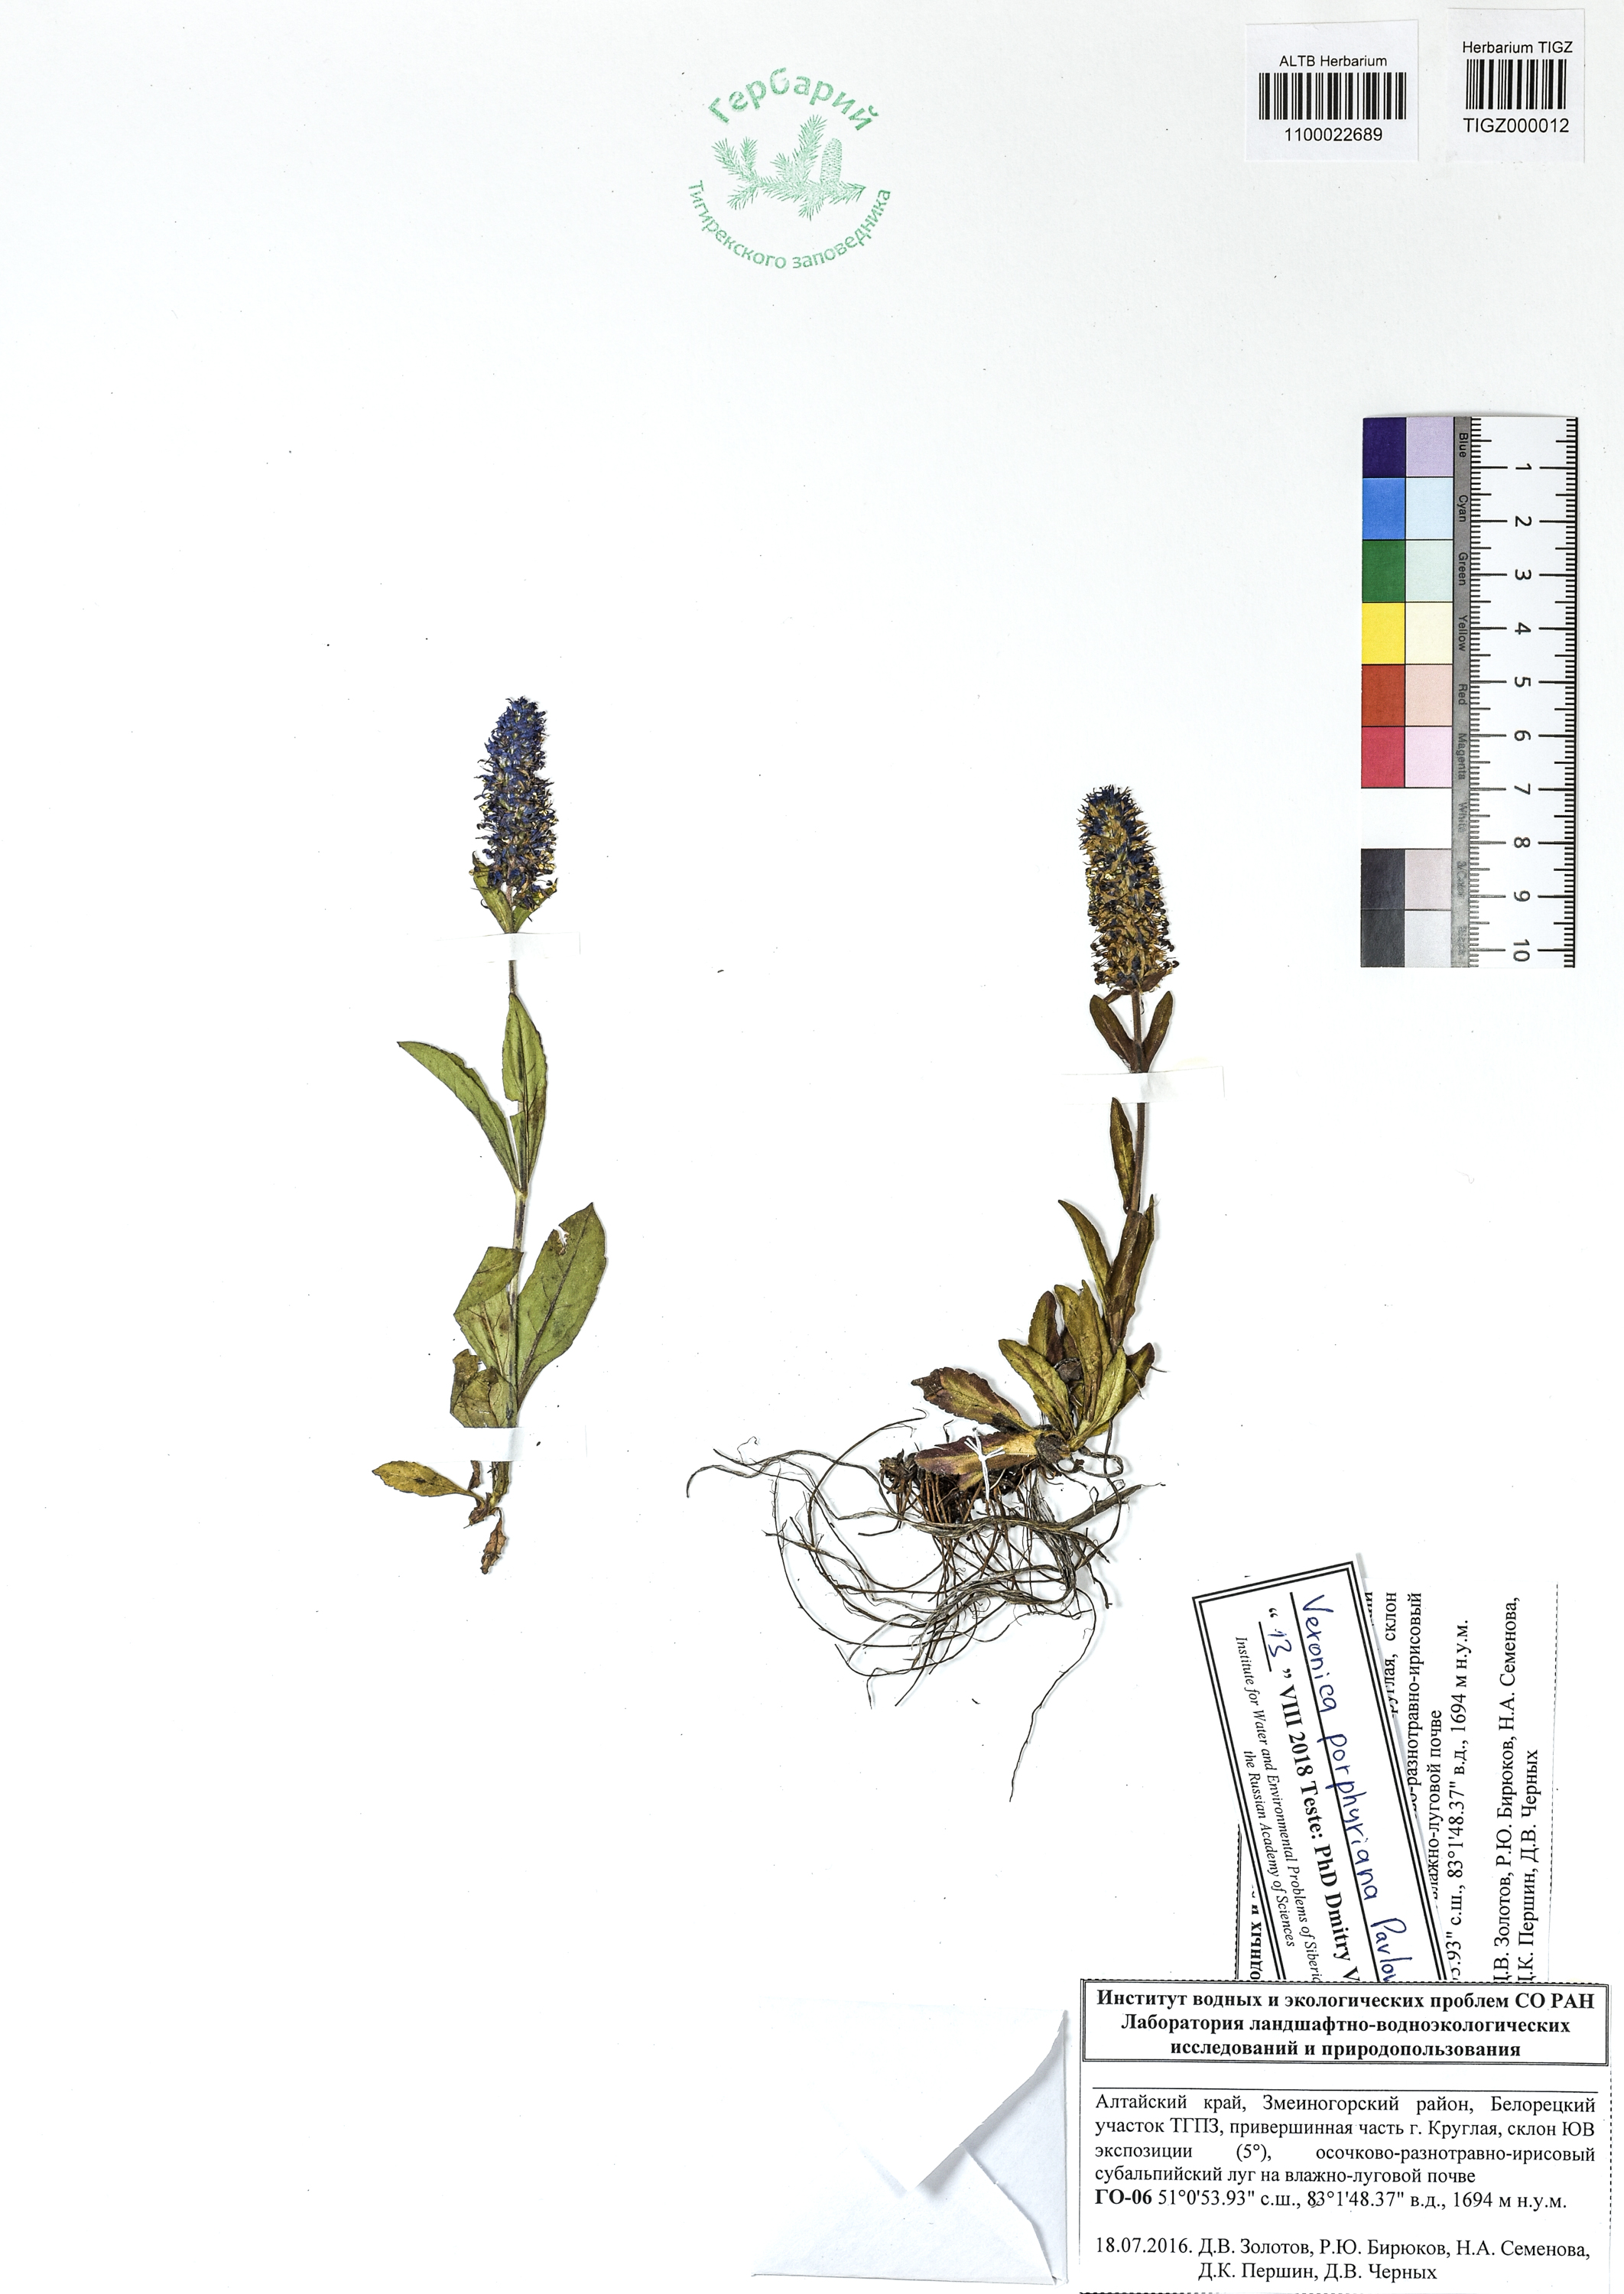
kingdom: Plantae
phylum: Tracheophyta
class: Magnoliopsida
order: Lamiales
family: Plantaginaceae
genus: Veronica
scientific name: Veronica porphyriana
